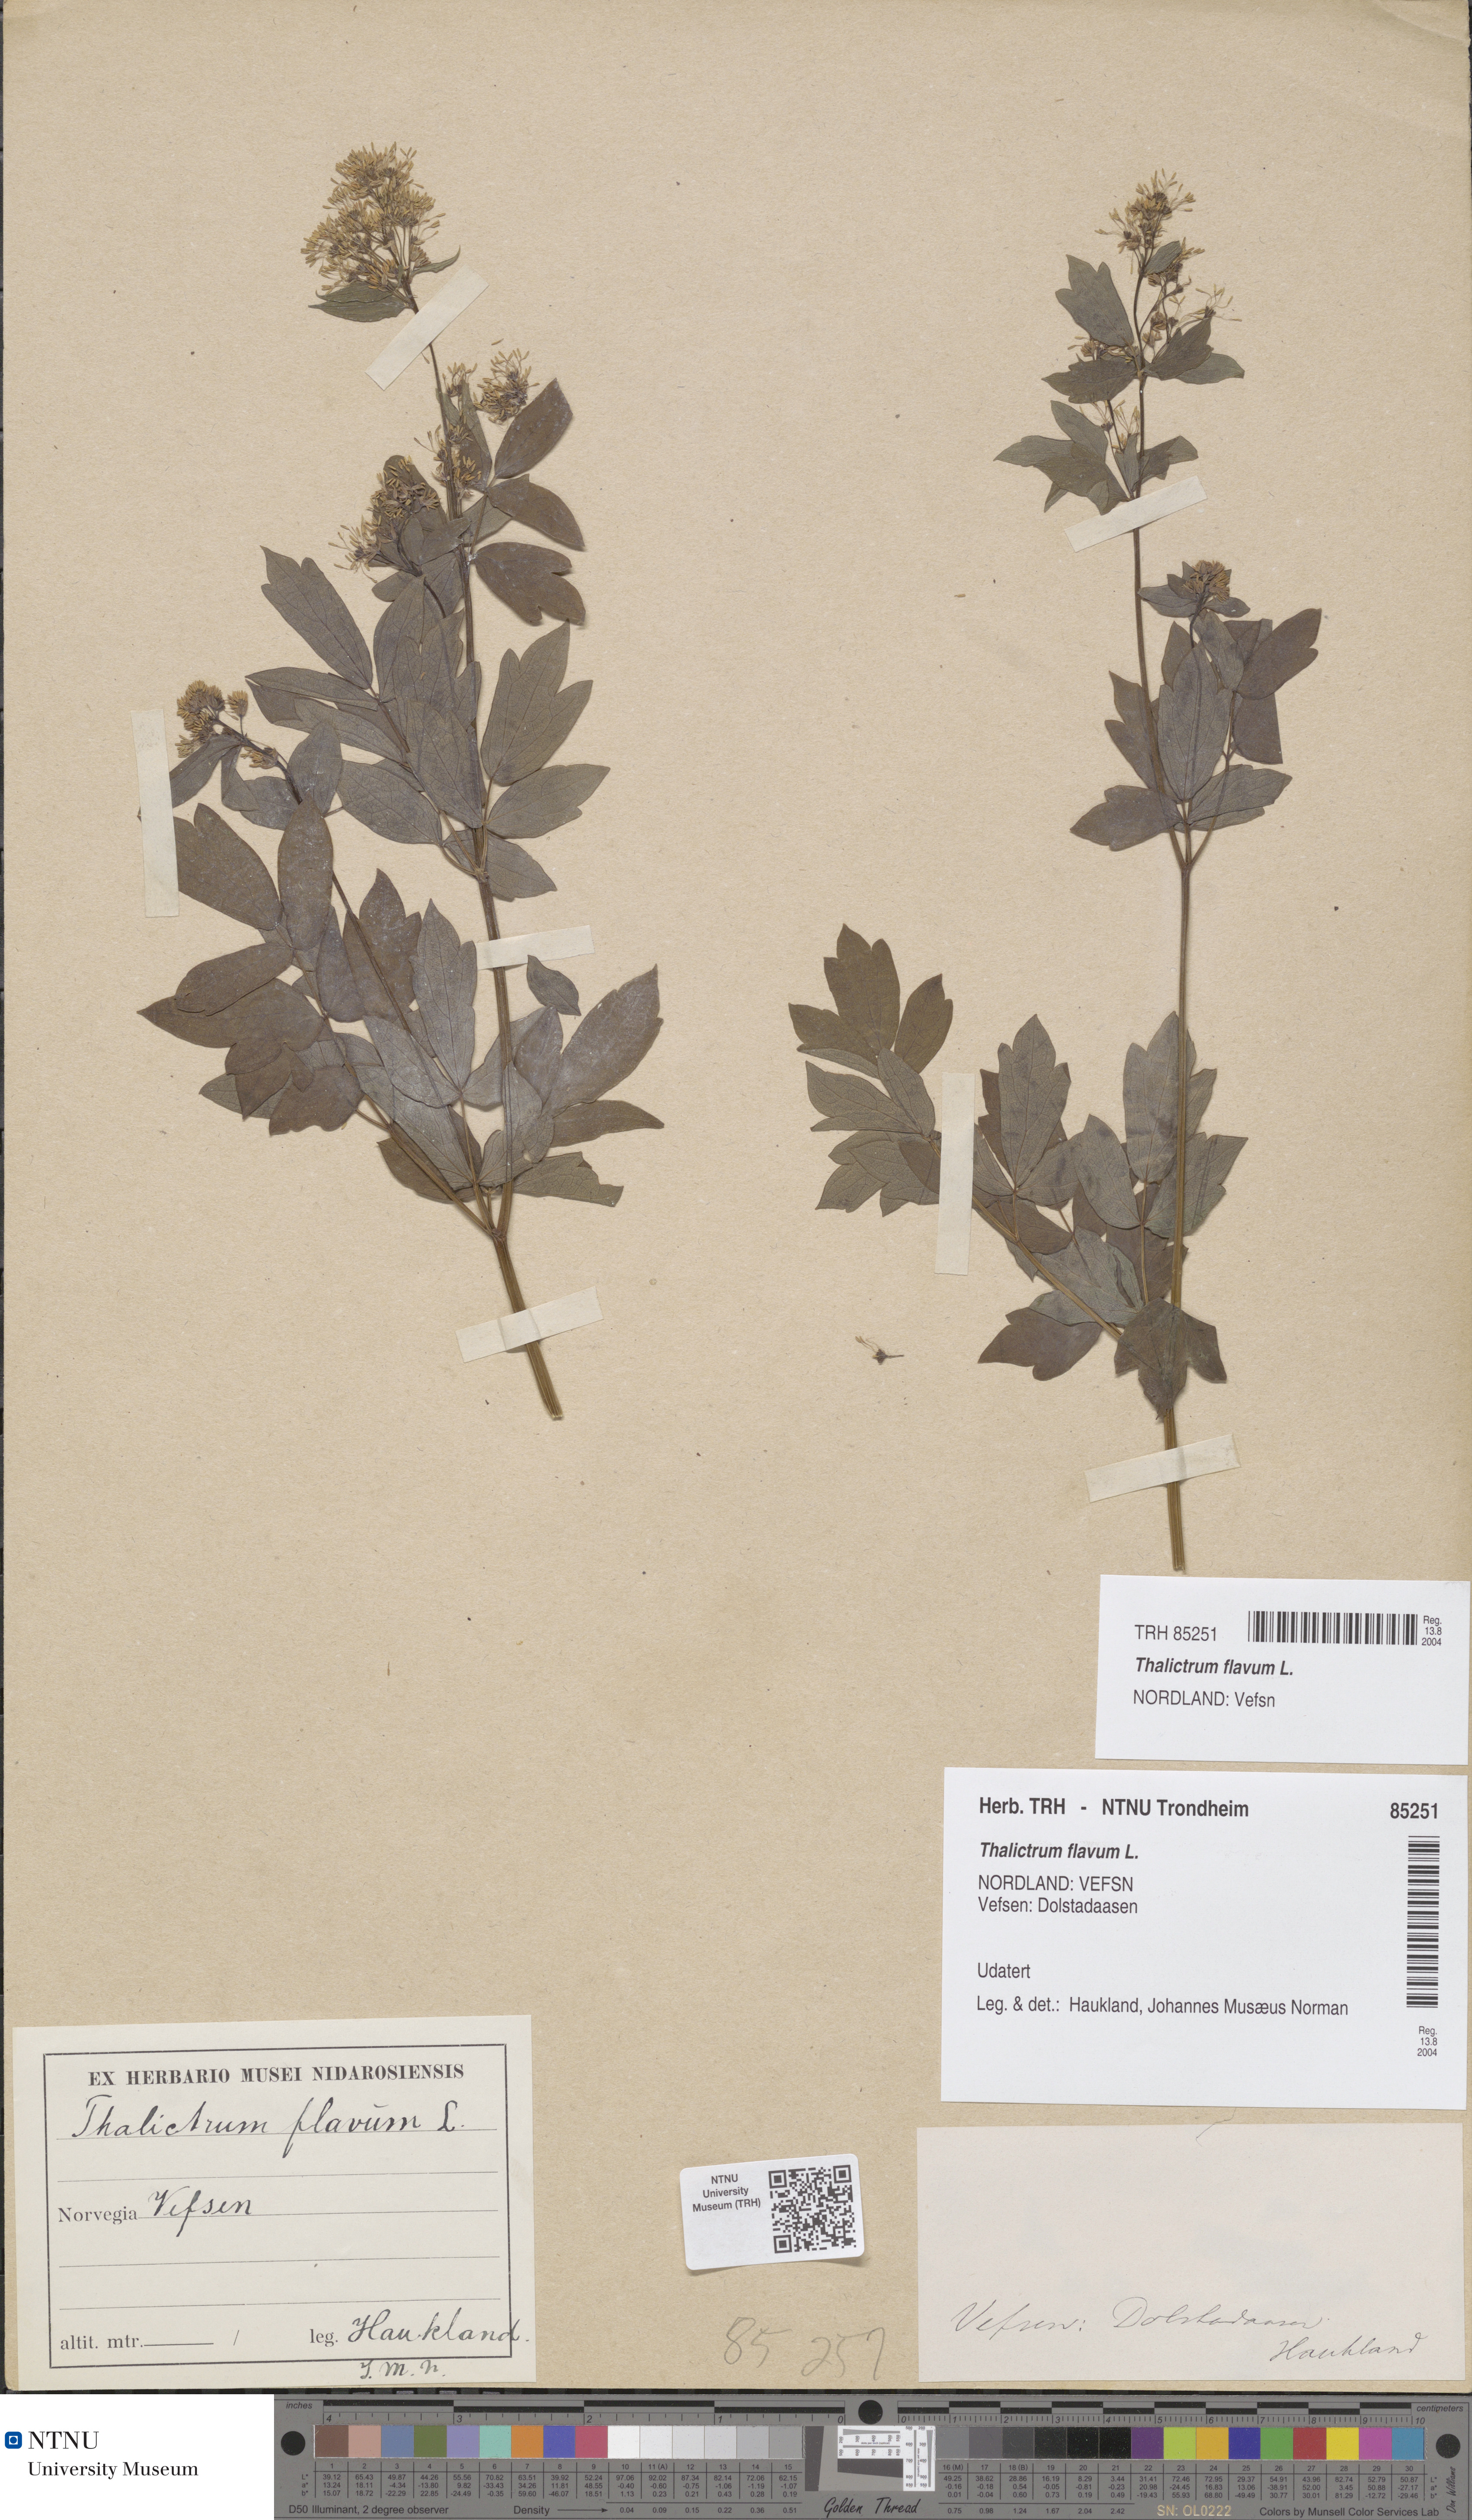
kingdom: Plantae
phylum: Tracheophyta
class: Magnoliopsida
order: Ranunculales
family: Ranunculaceae
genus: Thalictrum
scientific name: Thalictrum flavum
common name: Common meadow-rue
